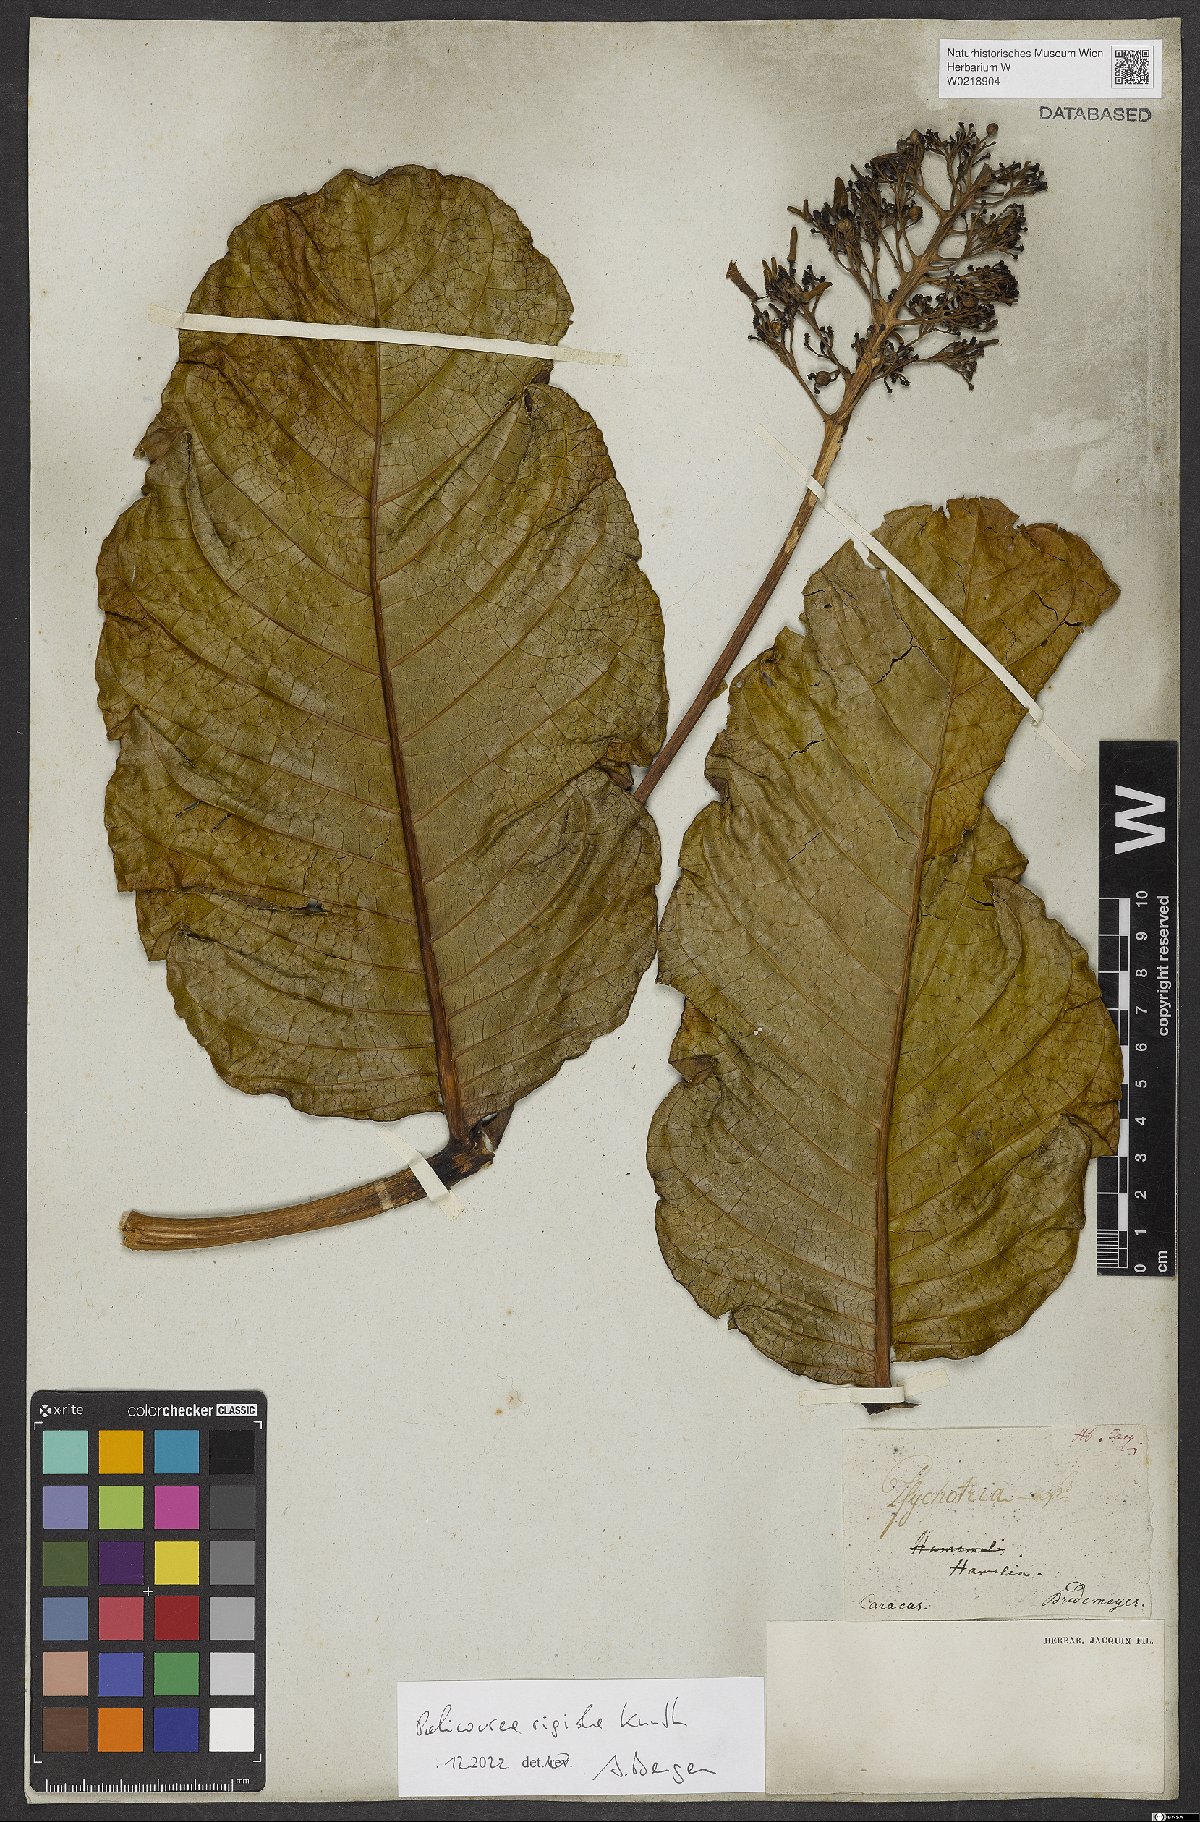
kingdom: Plantae
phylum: Tracheophyta
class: Magnoliopsida
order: Gentianales
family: Rubiaceae
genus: Palicourea
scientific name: Palicourea rigida
